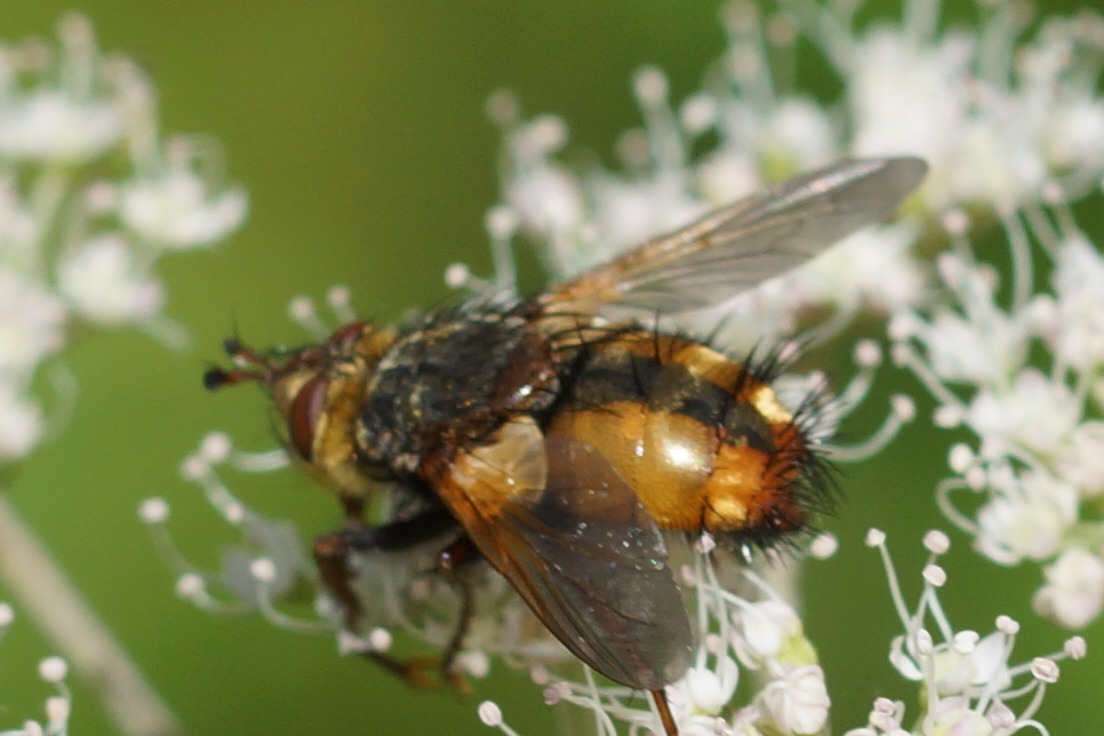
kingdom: Animalia
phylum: Arthropoda
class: Insecta
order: Diptera
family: Tachinidae
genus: Tachina
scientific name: Tachina fera
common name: Mellemfluen oskar
